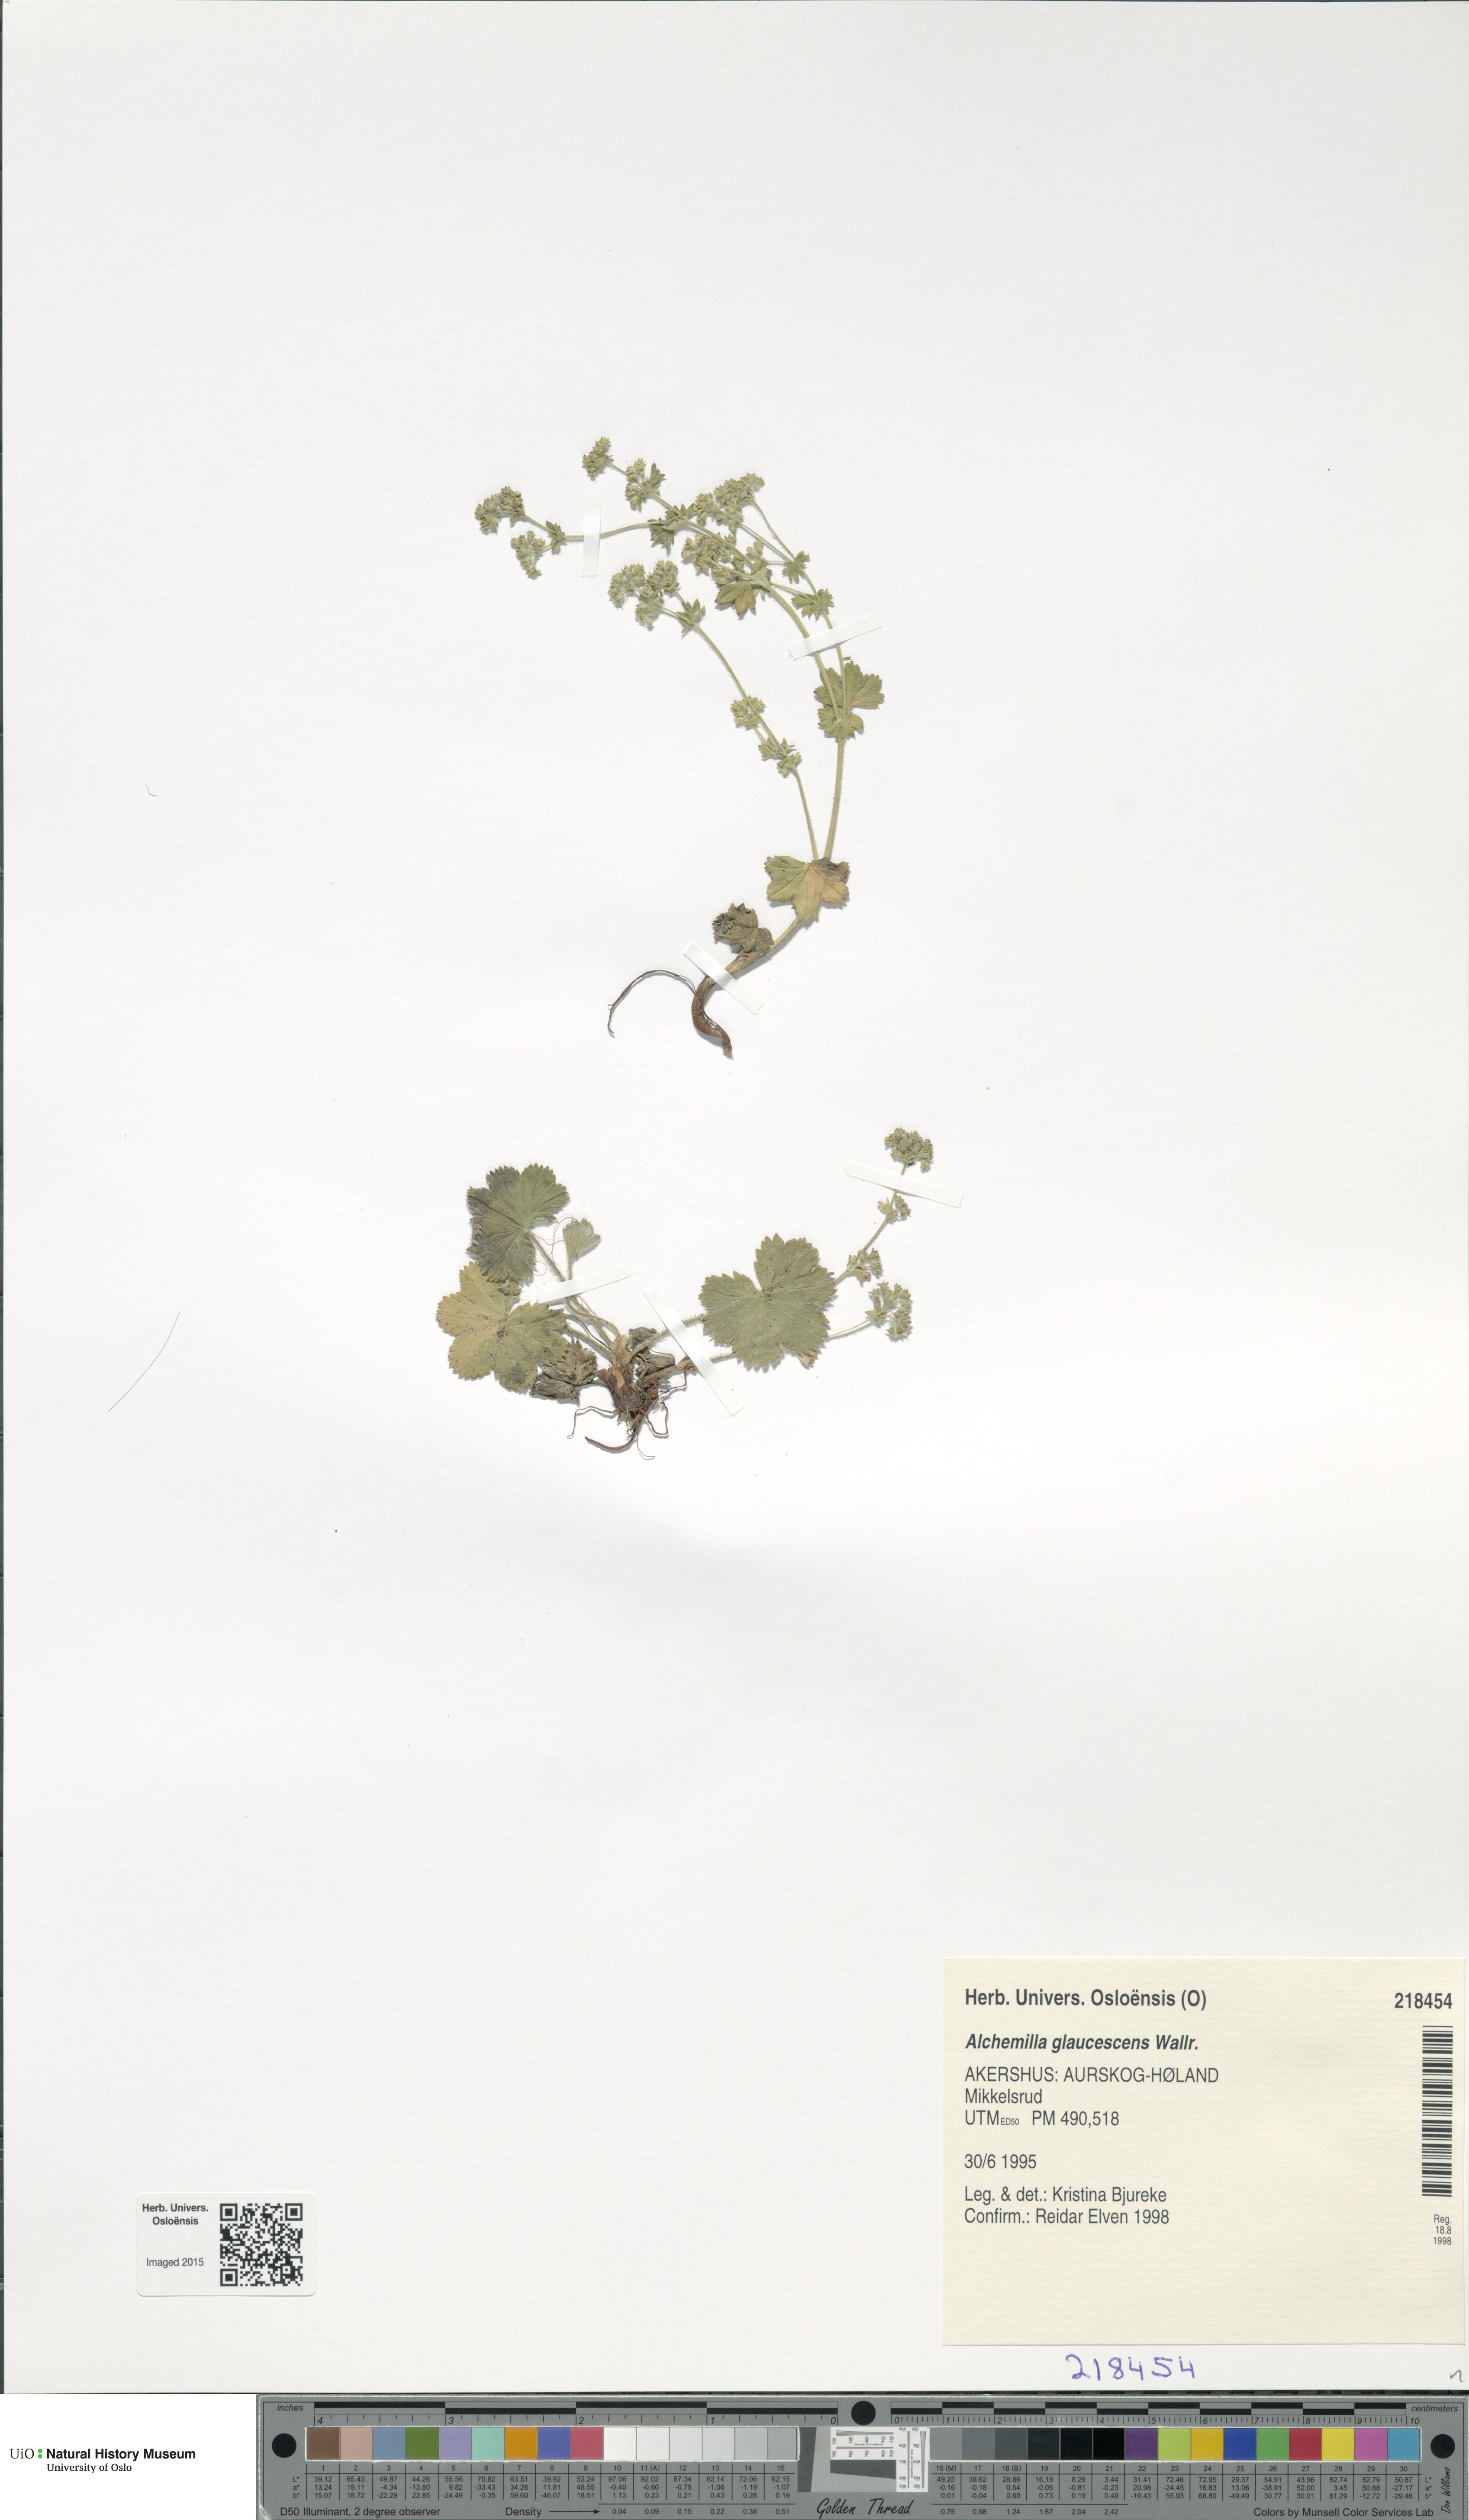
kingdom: Plantae
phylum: Tracheophyta
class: Magnoliopsida
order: Rosales
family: Rosaceae
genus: Alchemilla
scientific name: Alchemilla glaucescens
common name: Silky lady's mantle
